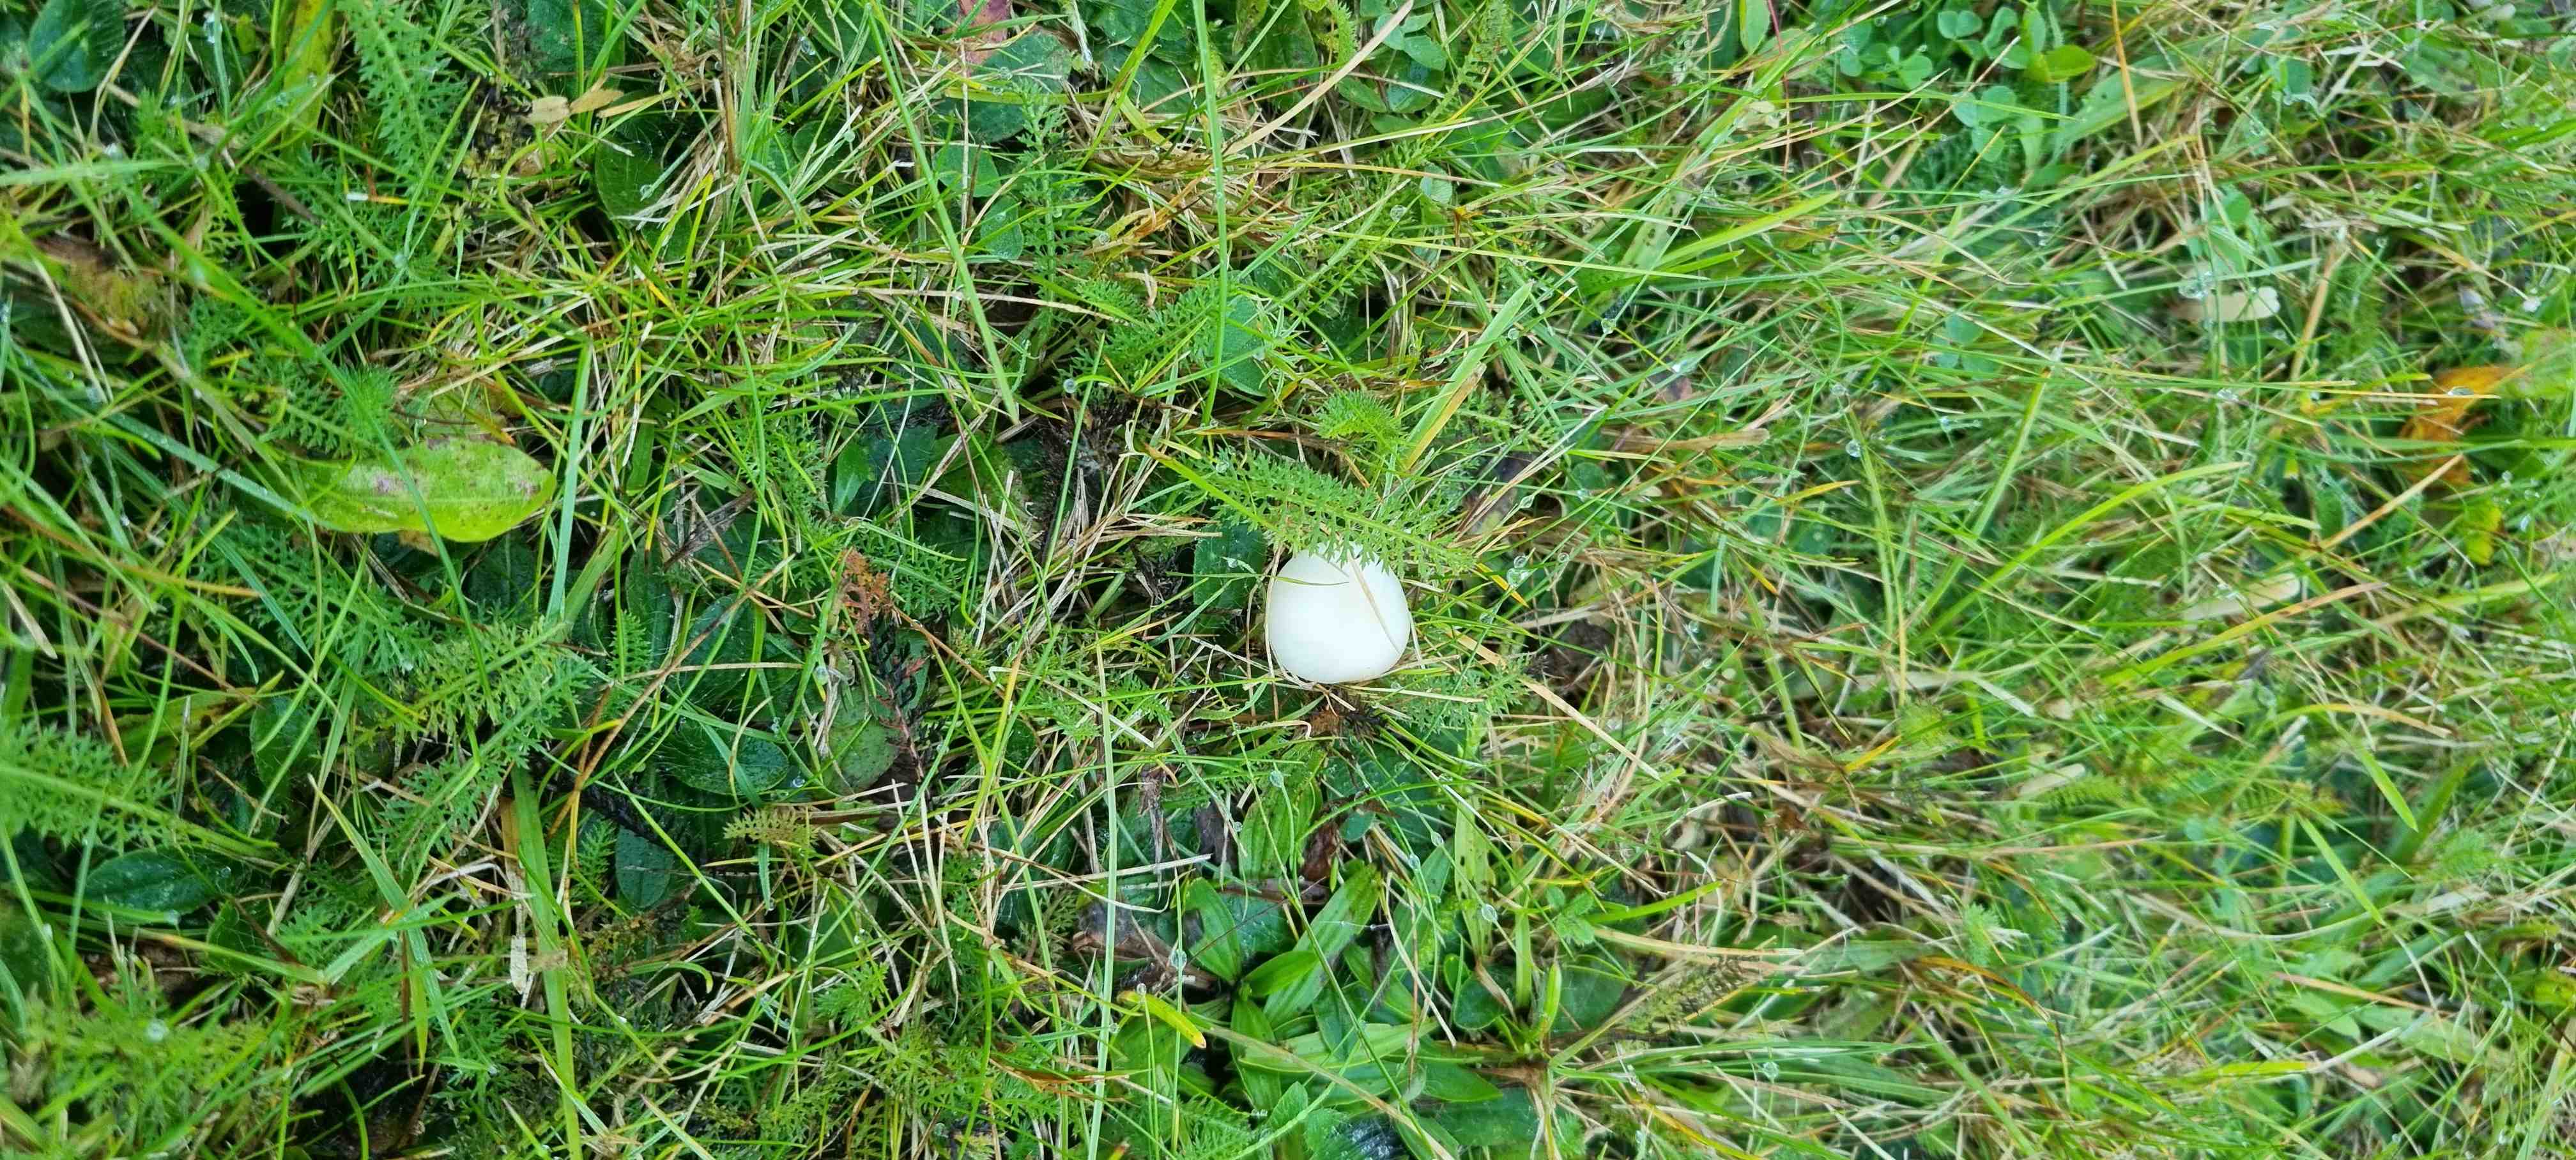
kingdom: Fungi
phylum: Basidiomycota
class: Agaricomycetes
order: Agaricales
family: Hygrophoraceae
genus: Cuphophyllus
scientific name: Cuphophyllus virgineus
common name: snehvid vokshat
